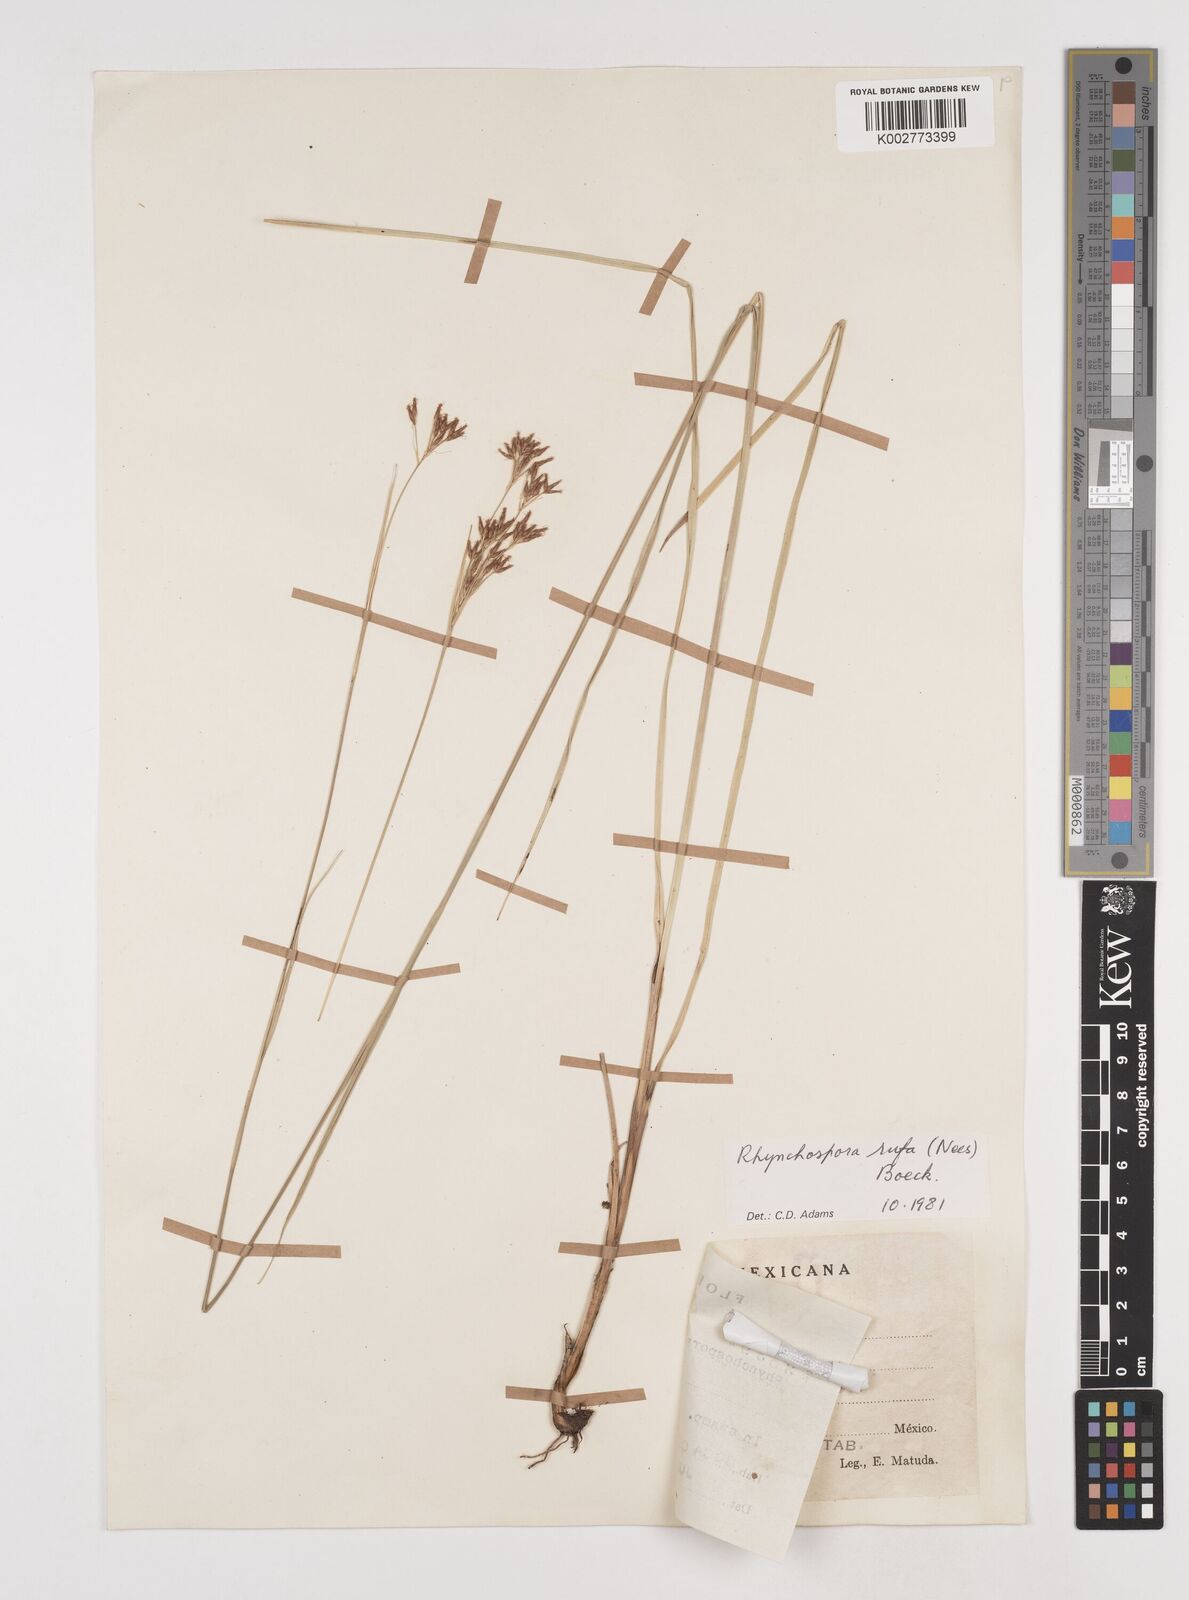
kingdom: Plantae
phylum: Tracheophyta
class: Liliopsida
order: Poales
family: Cyperaceae
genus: Rhynchospora
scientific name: Rhynchospora velutina
